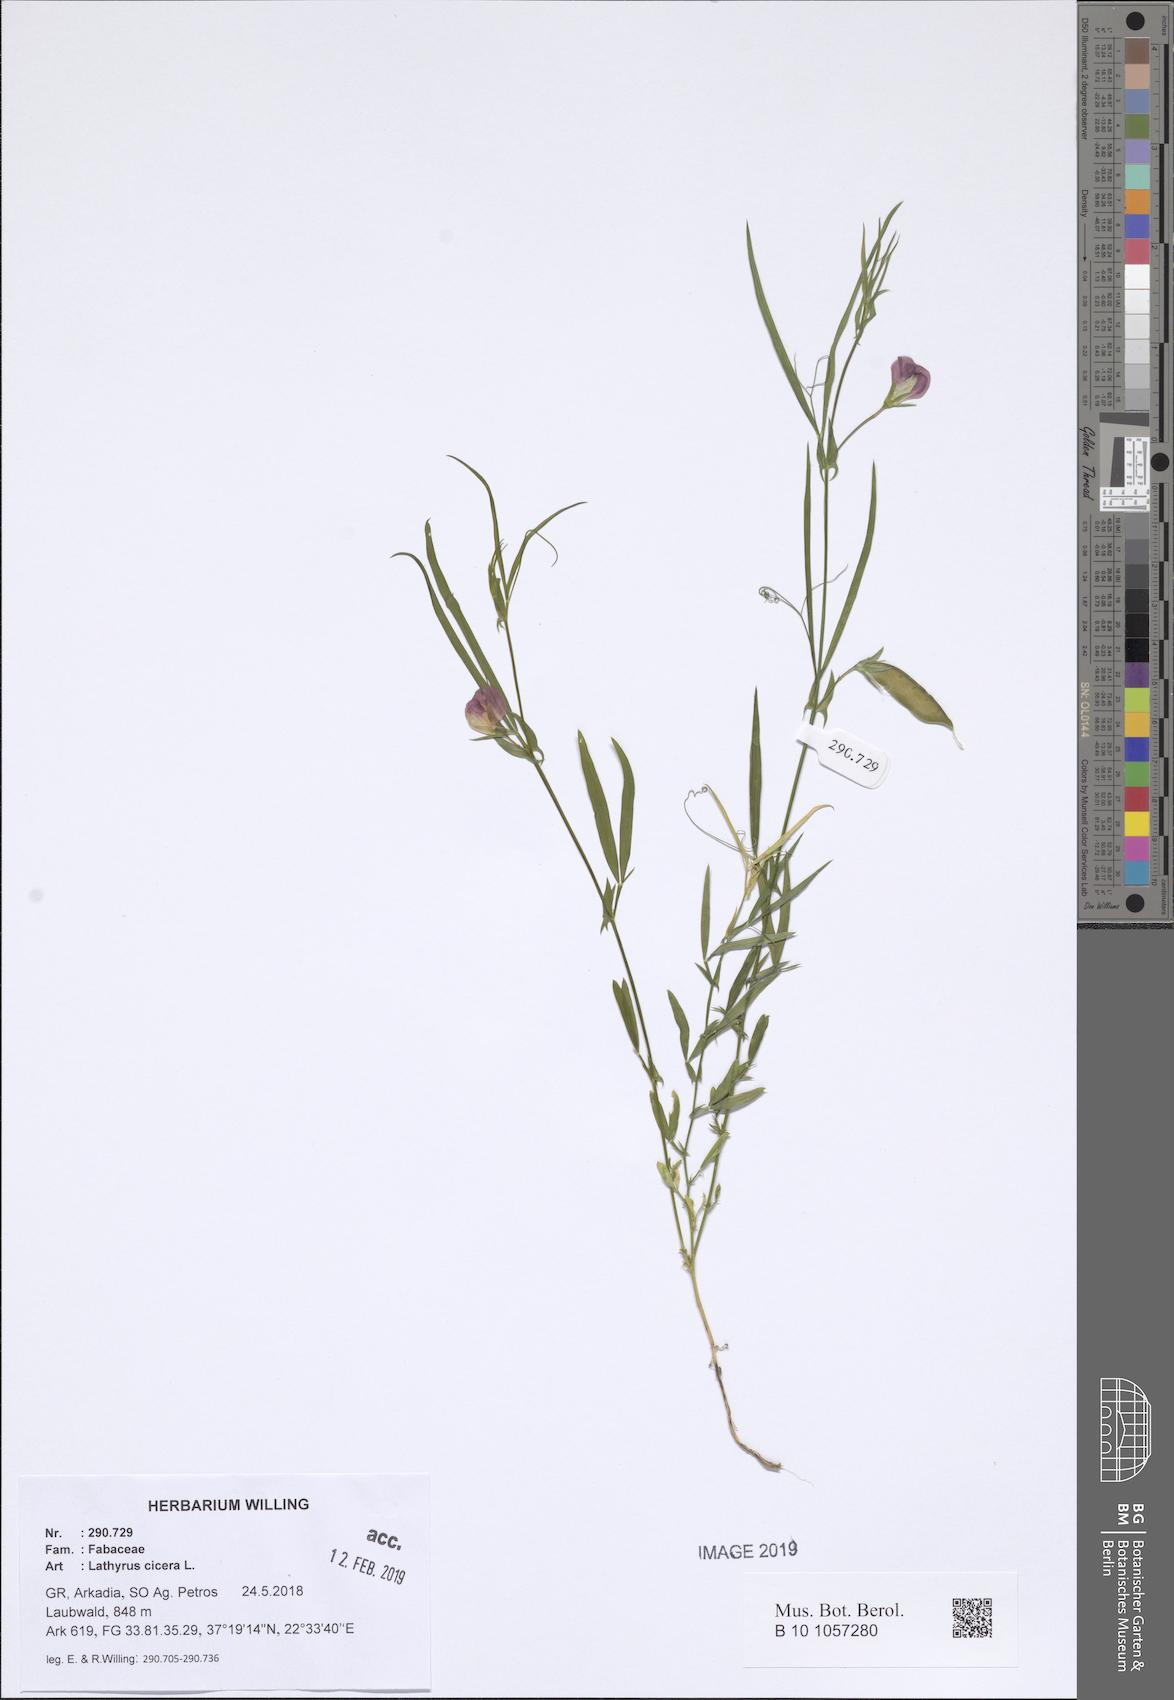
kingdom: Plantae
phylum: Tracheophyta
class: Magnoliopsida
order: Fabales
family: Fabaceae
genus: Lathyrus
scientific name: Lathyrus cicera
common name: Red vetchling
